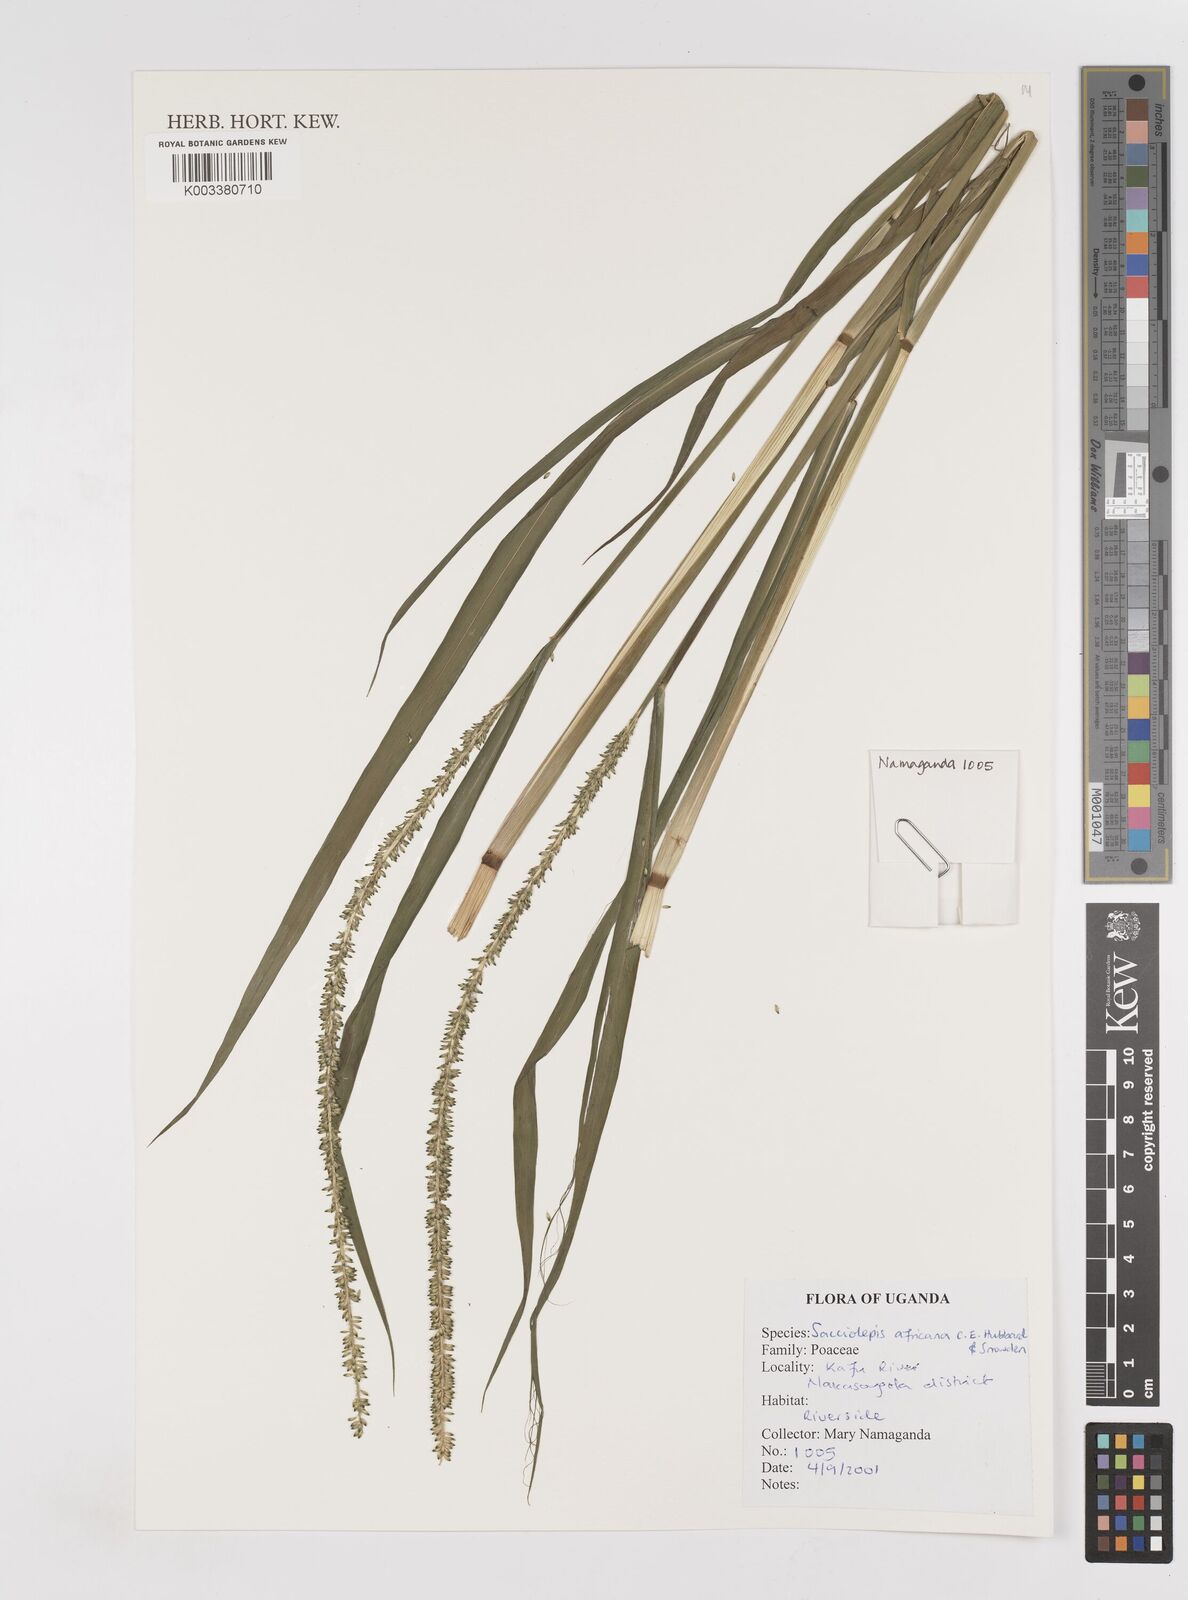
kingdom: Plantae
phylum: Tracheophyta
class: Liliopsida
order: Poales
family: Poaceae
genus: Sacciolepis
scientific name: Sacciolepis africana
